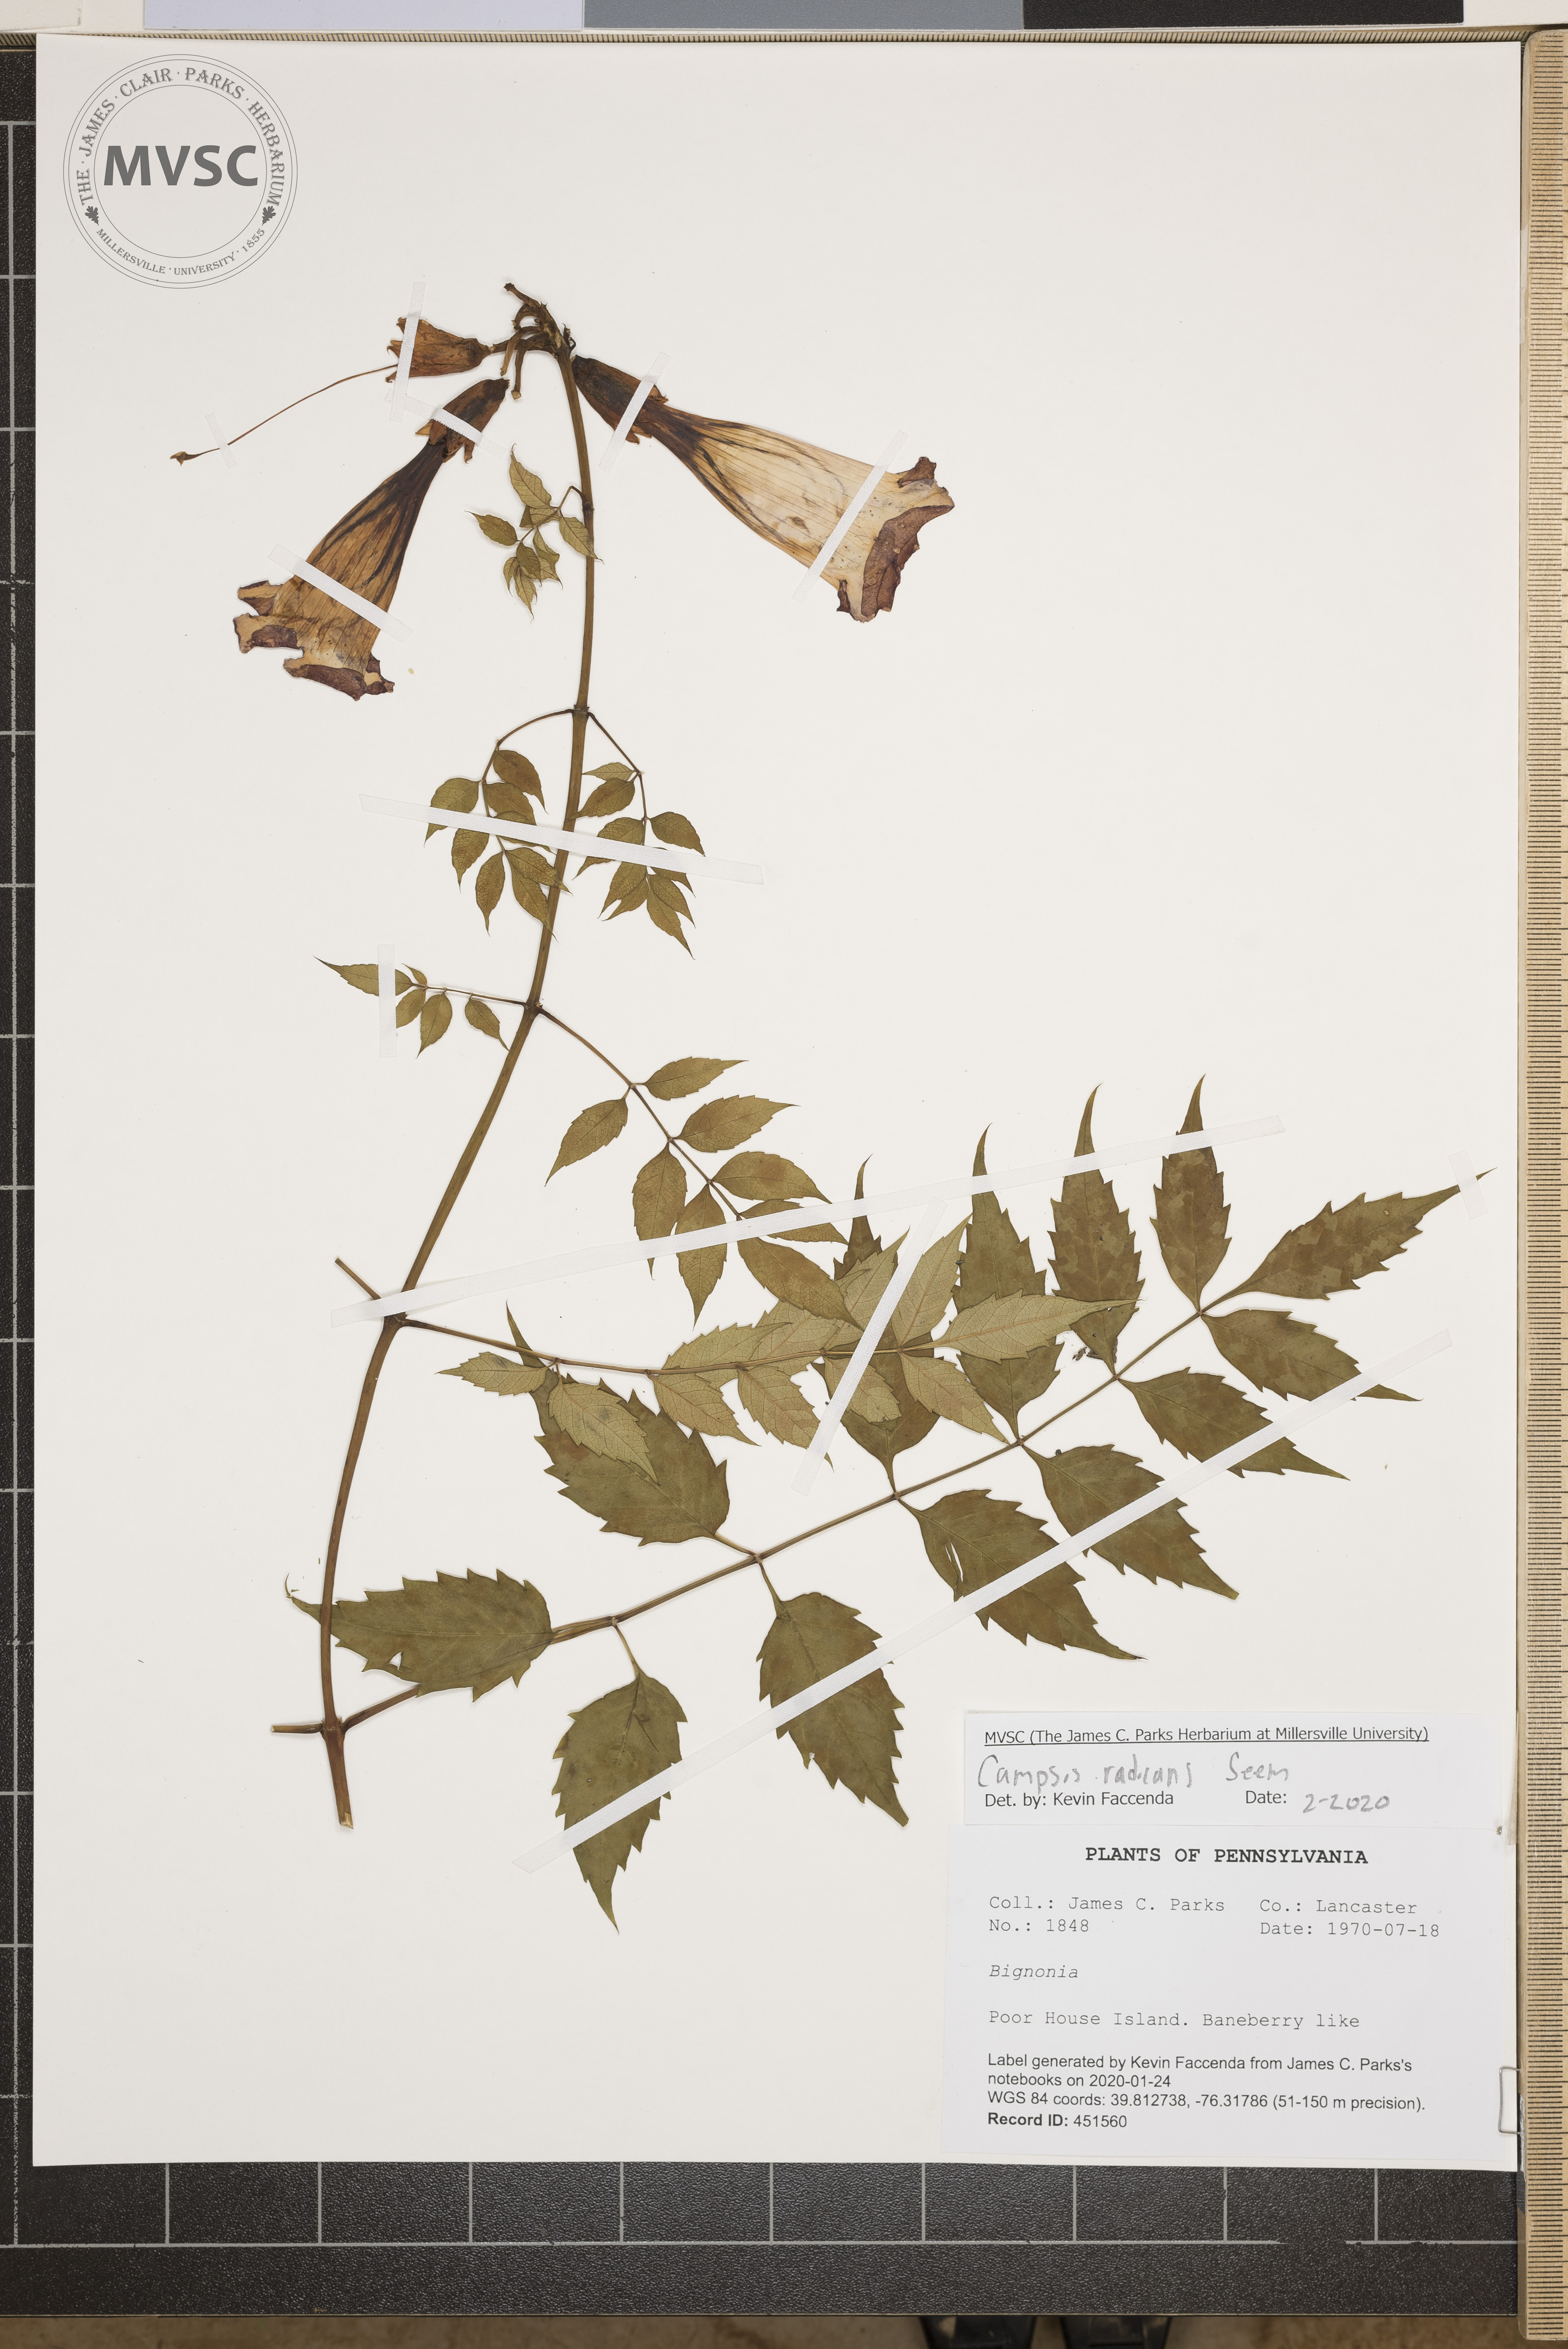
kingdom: Plantae
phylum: Tracheophyta
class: Magnoliopsida
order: Lamiales
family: Bignoniaceae
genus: Campsis
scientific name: Campsis radicans
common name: Trumpet-creeper
